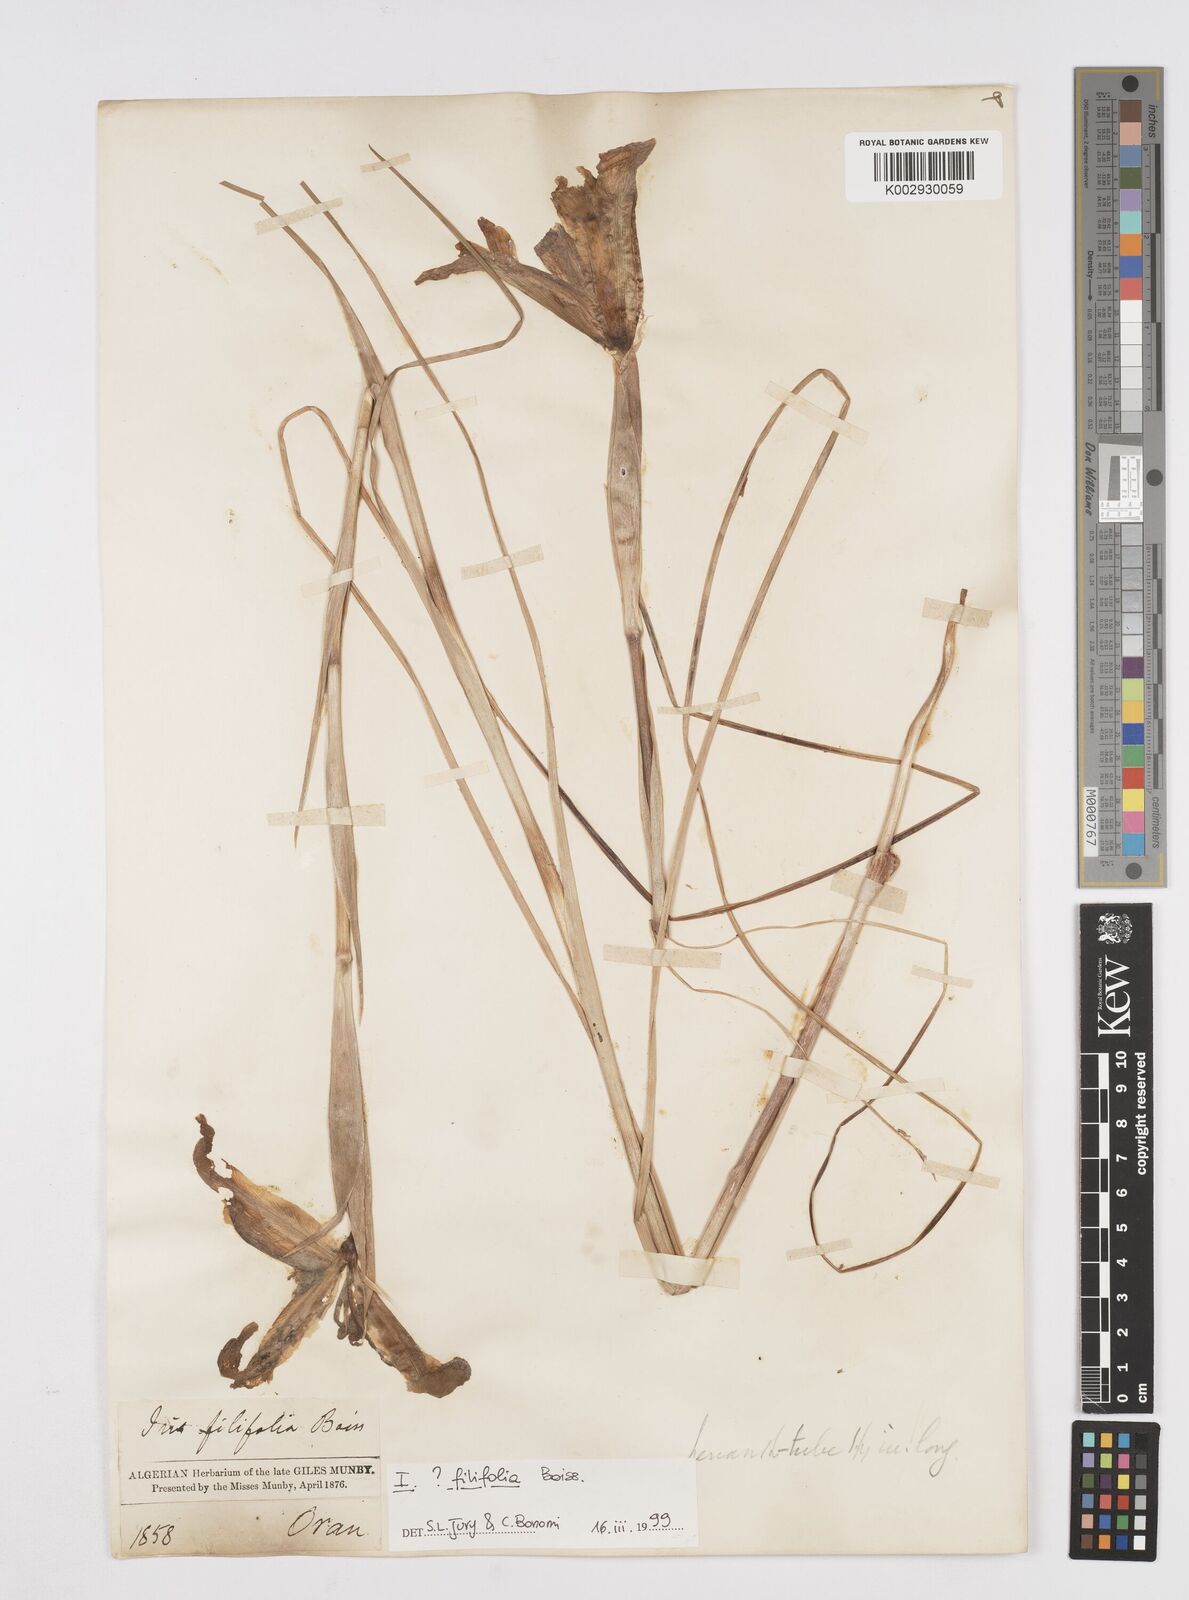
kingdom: Plantae
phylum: Tracheophyta
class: Liliopsida
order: Asparagales
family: Iridaceae
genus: Iris
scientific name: Iris filifolia
